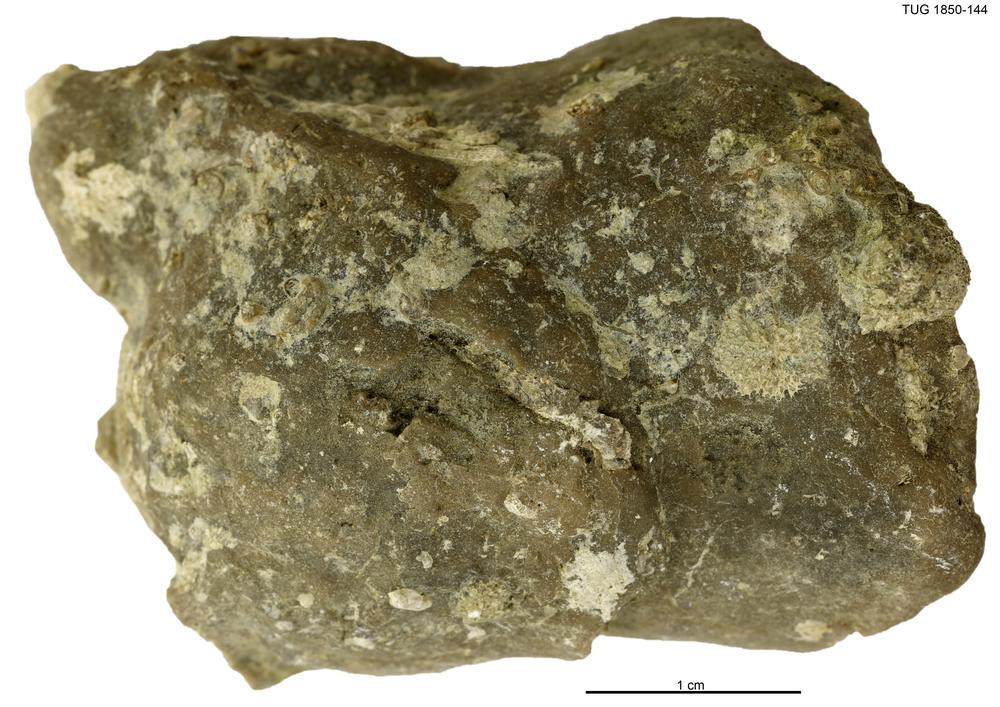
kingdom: Animalia
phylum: Porifera
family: Stromatoporidae
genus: Stromatopora
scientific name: Stromatopora
